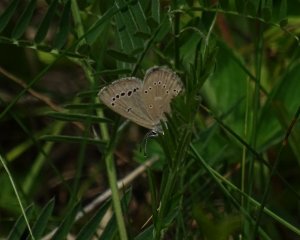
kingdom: Animalia
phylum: Arthropoda
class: Insecta
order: Lepidoptera
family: Lycaenidae
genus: Glaucopsyche
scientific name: Glaucopsyche lygdamus
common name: Silvery Blue
